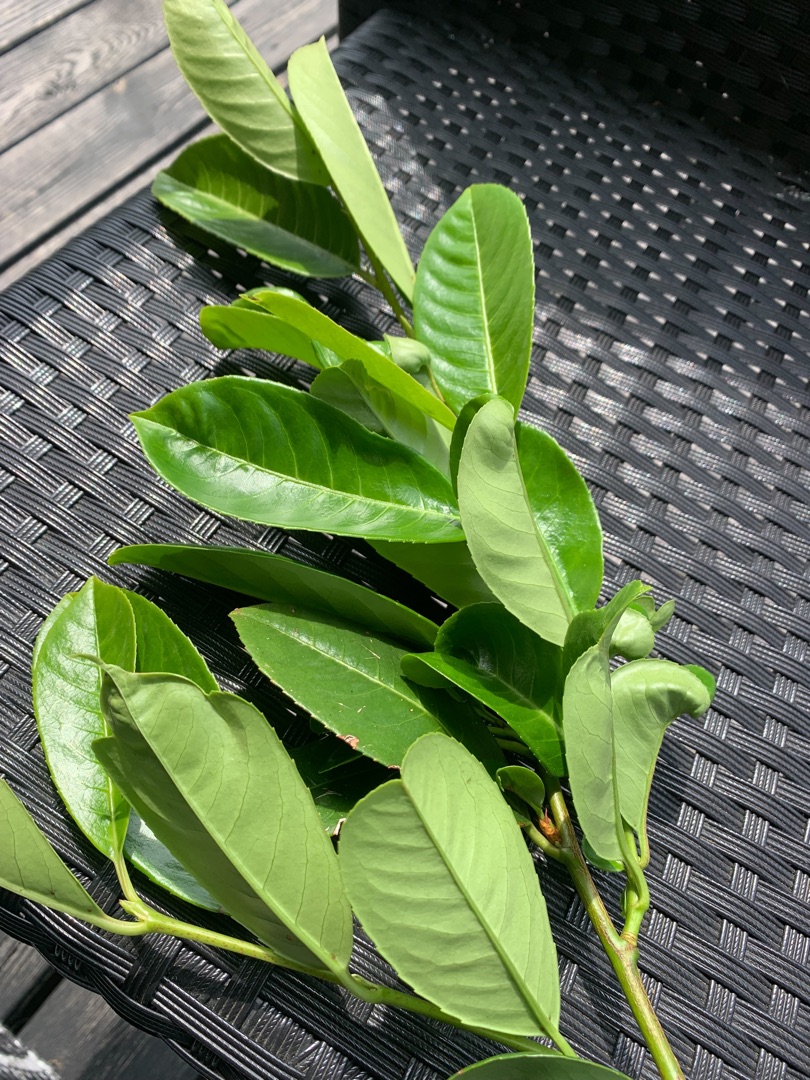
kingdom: Plantae
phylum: Tracheophyta
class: Magnoliopsida
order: Rosales
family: Rosaceae
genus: Prunus
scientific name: Prunus laurocerasus
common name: Laurbærkirsebær
